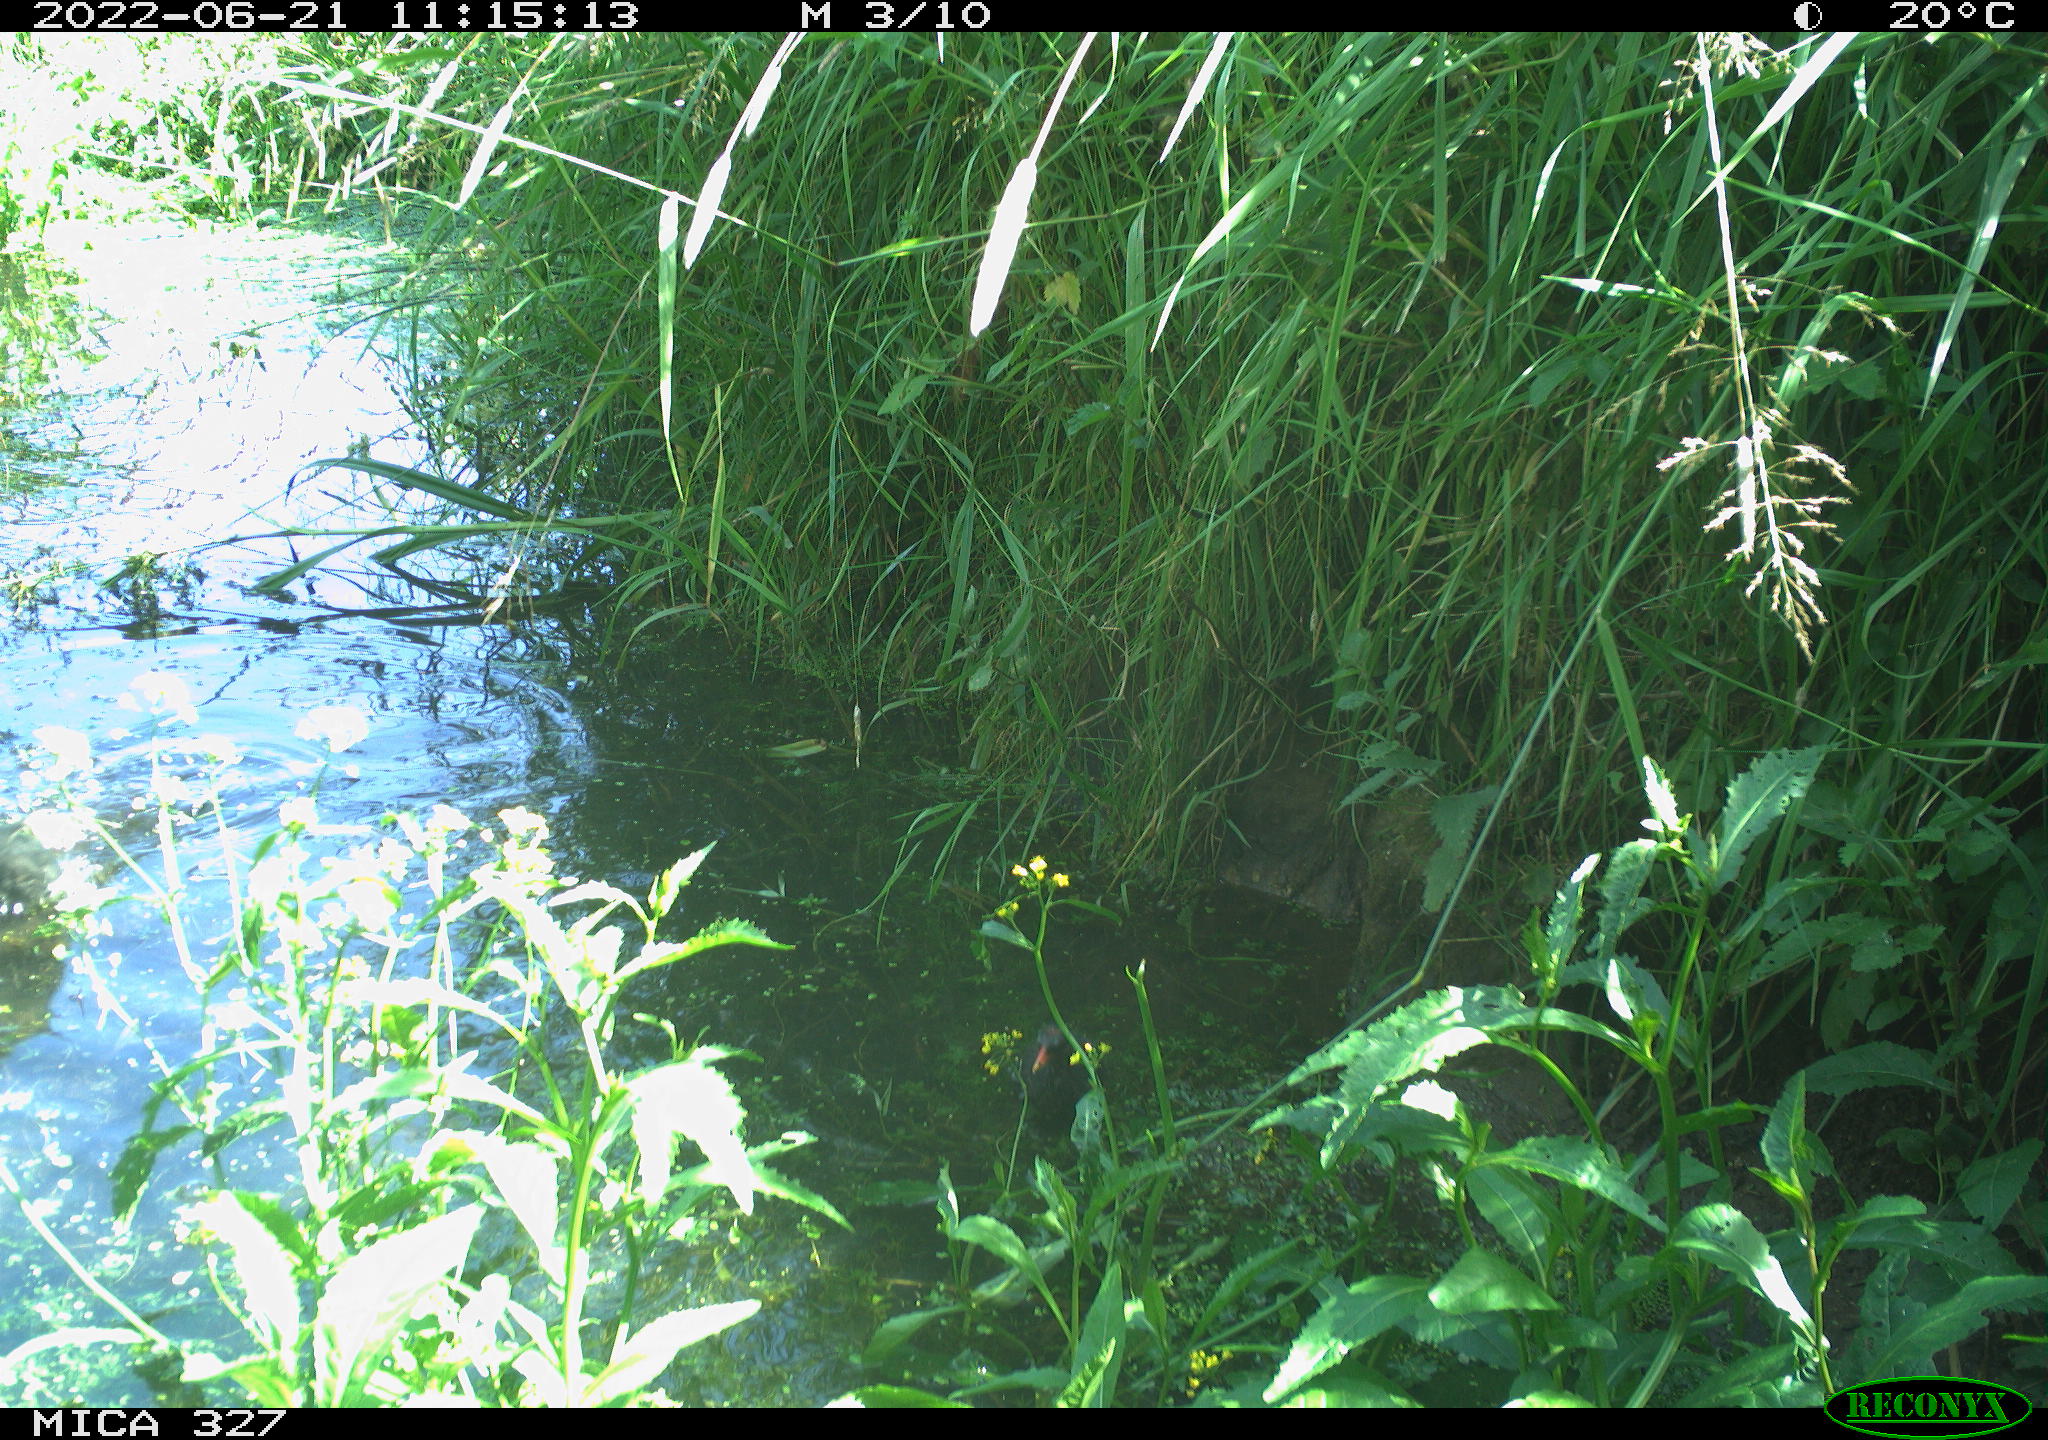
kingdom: Animalia
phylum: Chordata
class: Aves
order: Gruiformes
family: Rallidae
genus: Gallinula
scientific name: Gallinula chloropus
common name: Common moorhen
